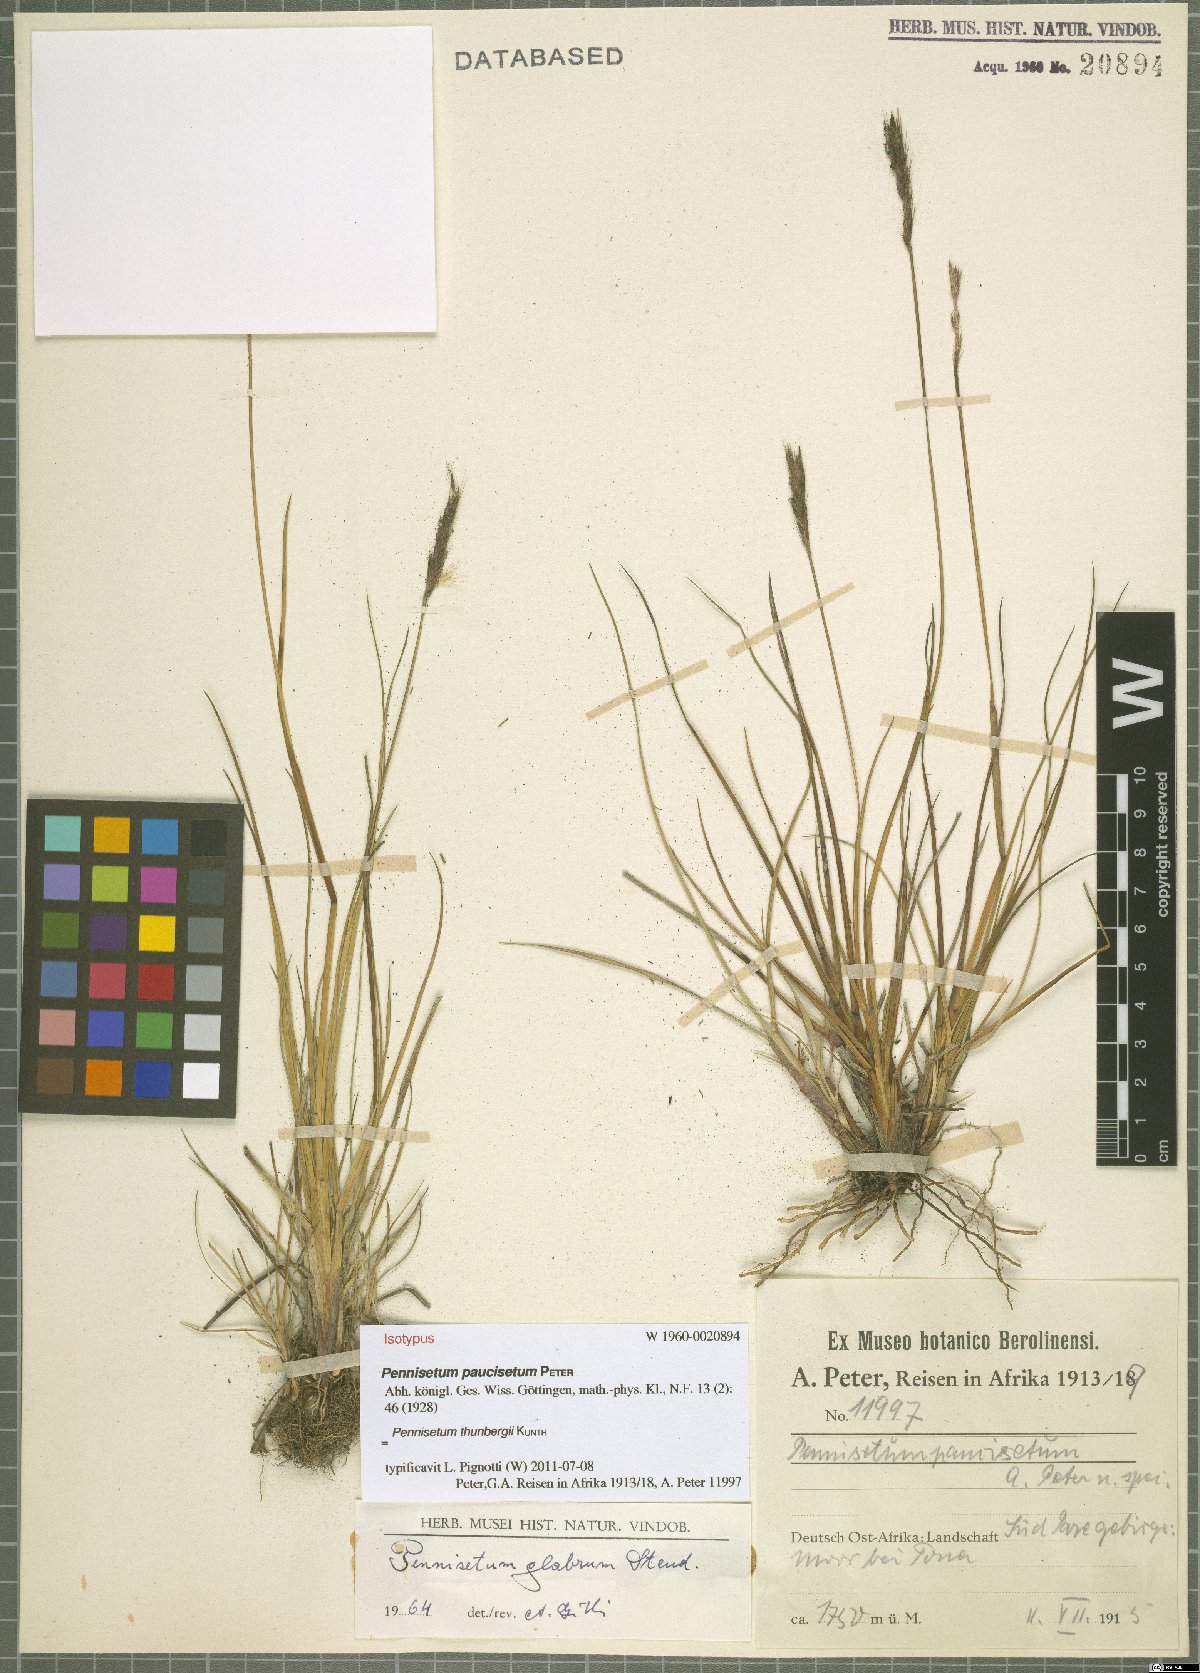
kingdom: Plantae
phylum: Tracheophyta
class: Liliopsida
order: Poales
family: Poaceae
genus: Cenchrus
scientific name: Cenchrus geniculatus
